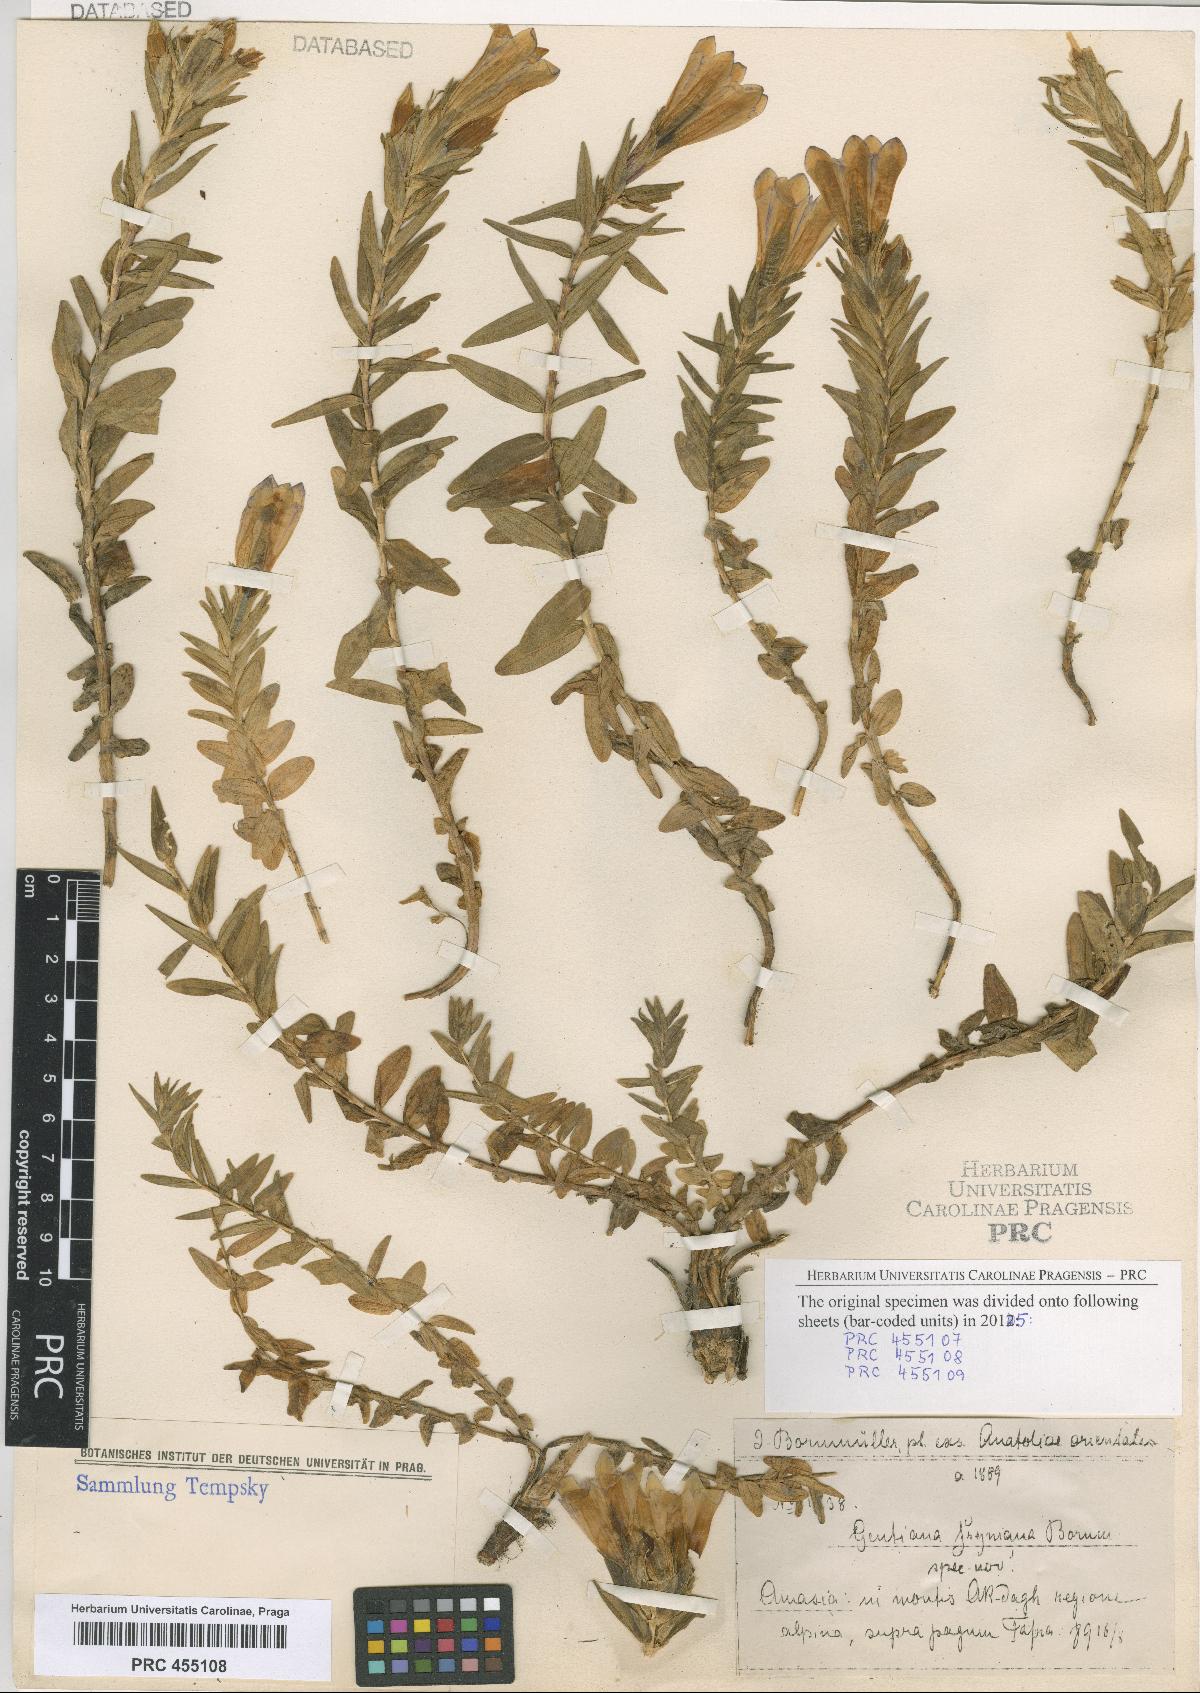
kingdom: Plantae
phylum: Tracheophyta
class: Magnoliopsida
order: Gentianales
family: Gentianaceae
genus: Gentiana
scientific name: Gentiana septemfida
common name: Crested gentian
